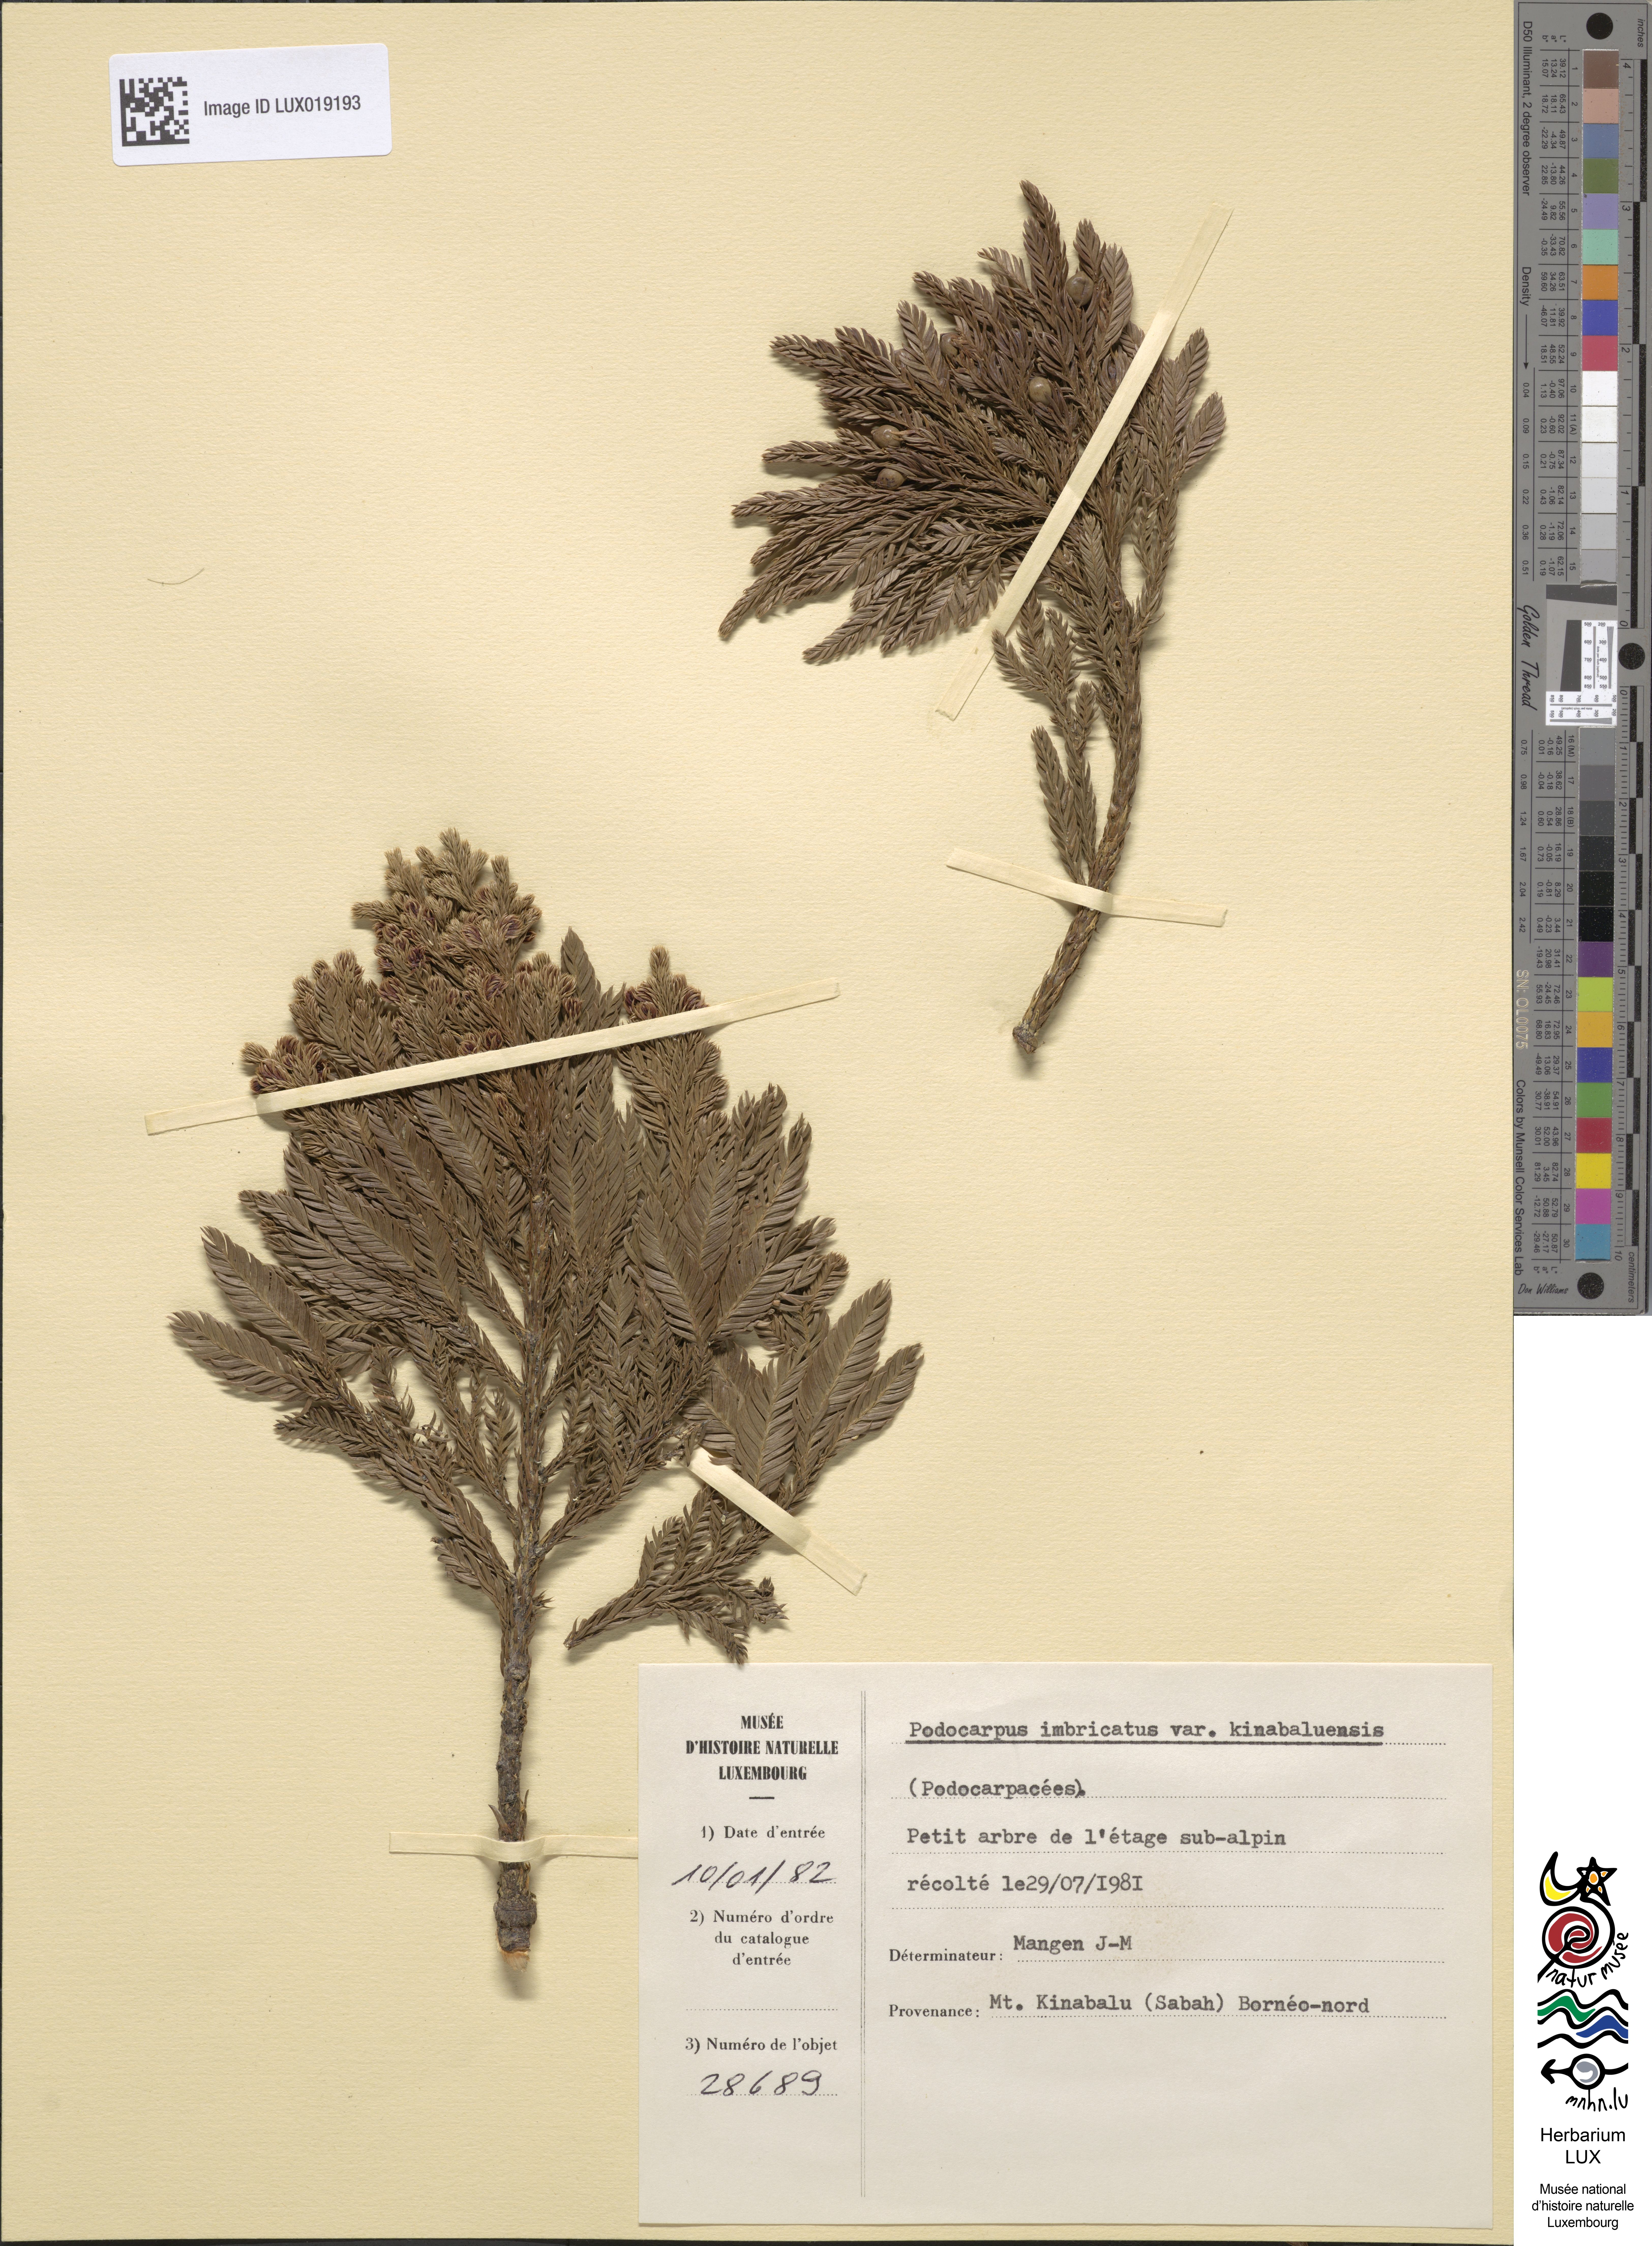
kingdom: Plantae
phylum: Tracheophyta
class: Pinopsida
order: Pinales
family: Podocarpaceae
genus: Dacrycarpus
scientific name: Dacrycarpus kinabaluensis
